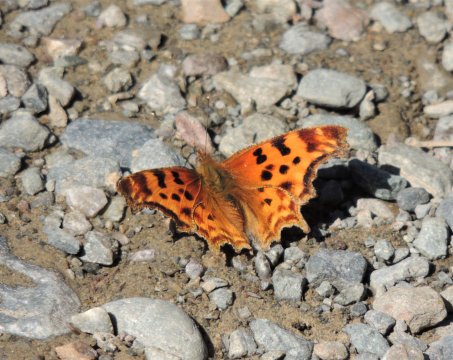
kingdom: Animalia
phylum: Arthropoda
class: Insecta
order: Lepidoptera
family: Nymphalidae
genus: Polygonia
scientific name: Polygonia satyrus
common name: Satyr Comma
